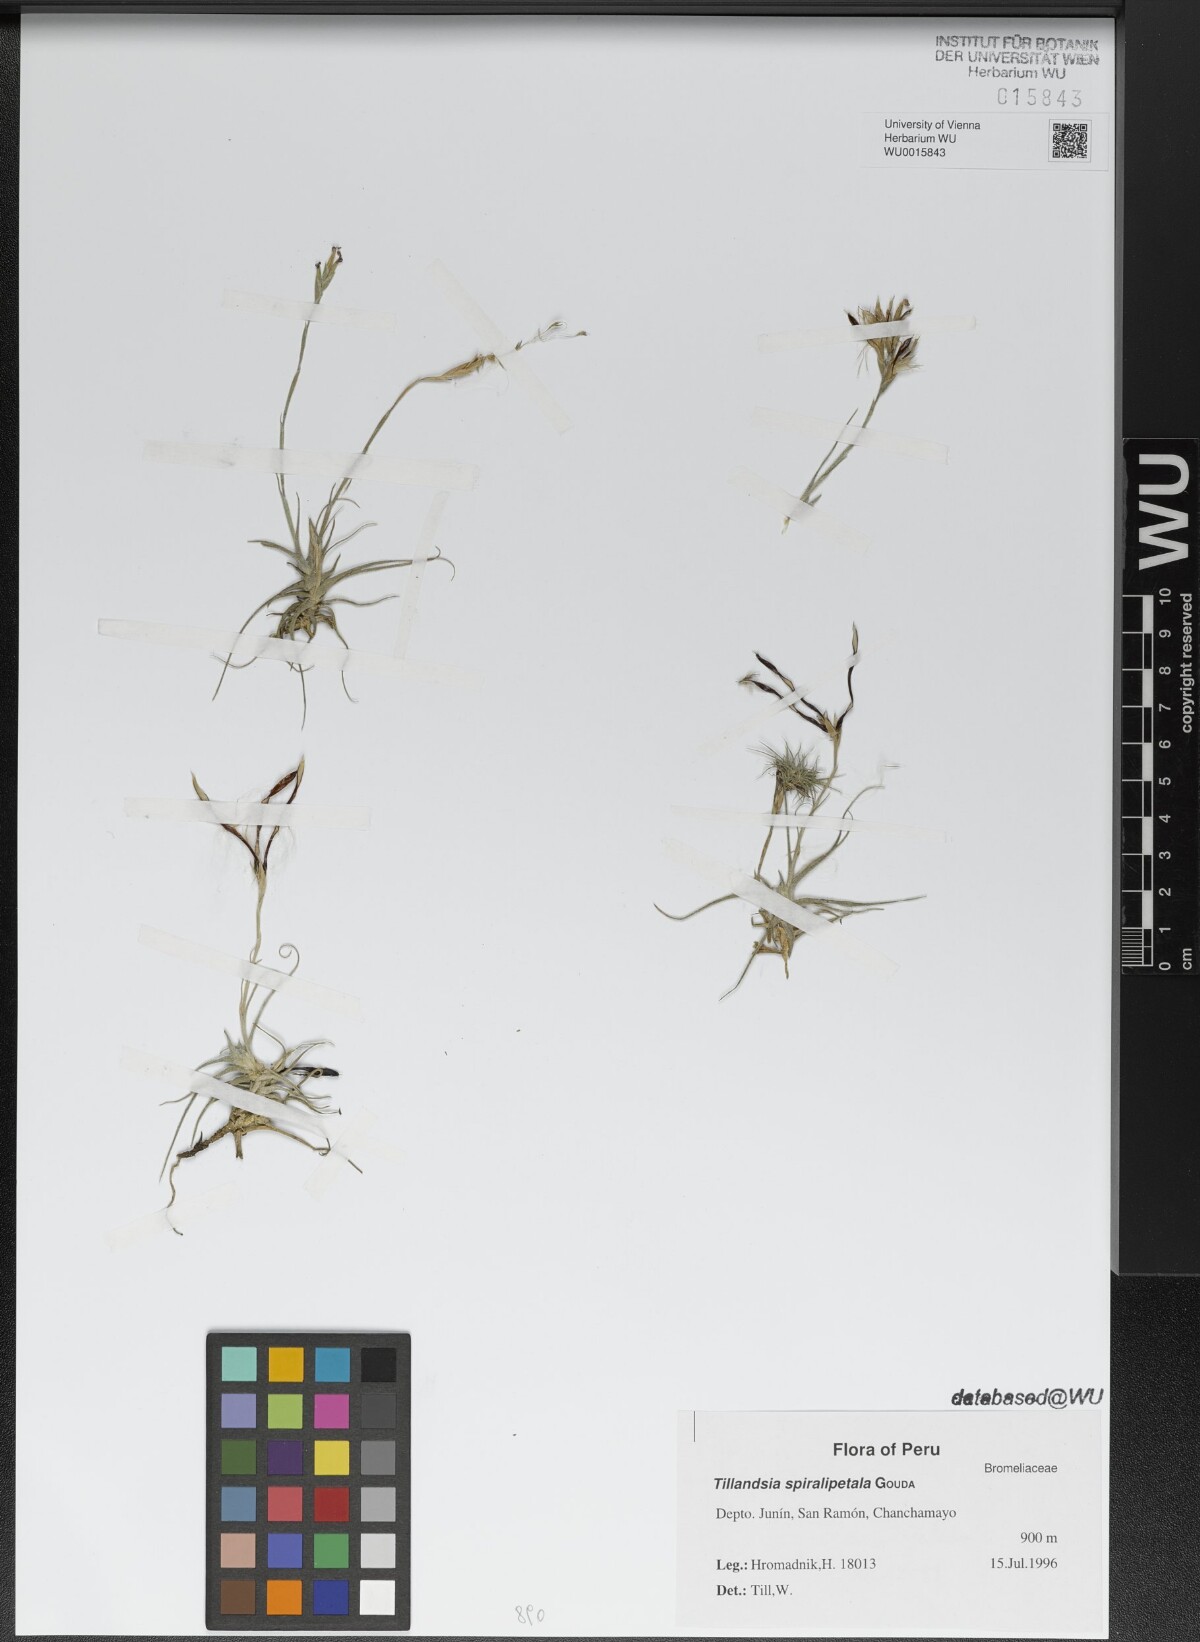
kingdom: Plantae
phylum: Tracheophyta
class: Liliopsida
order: Poales
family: Bromeliaceae
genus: Tillandsia
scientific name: Tillandsia spiralipetala
